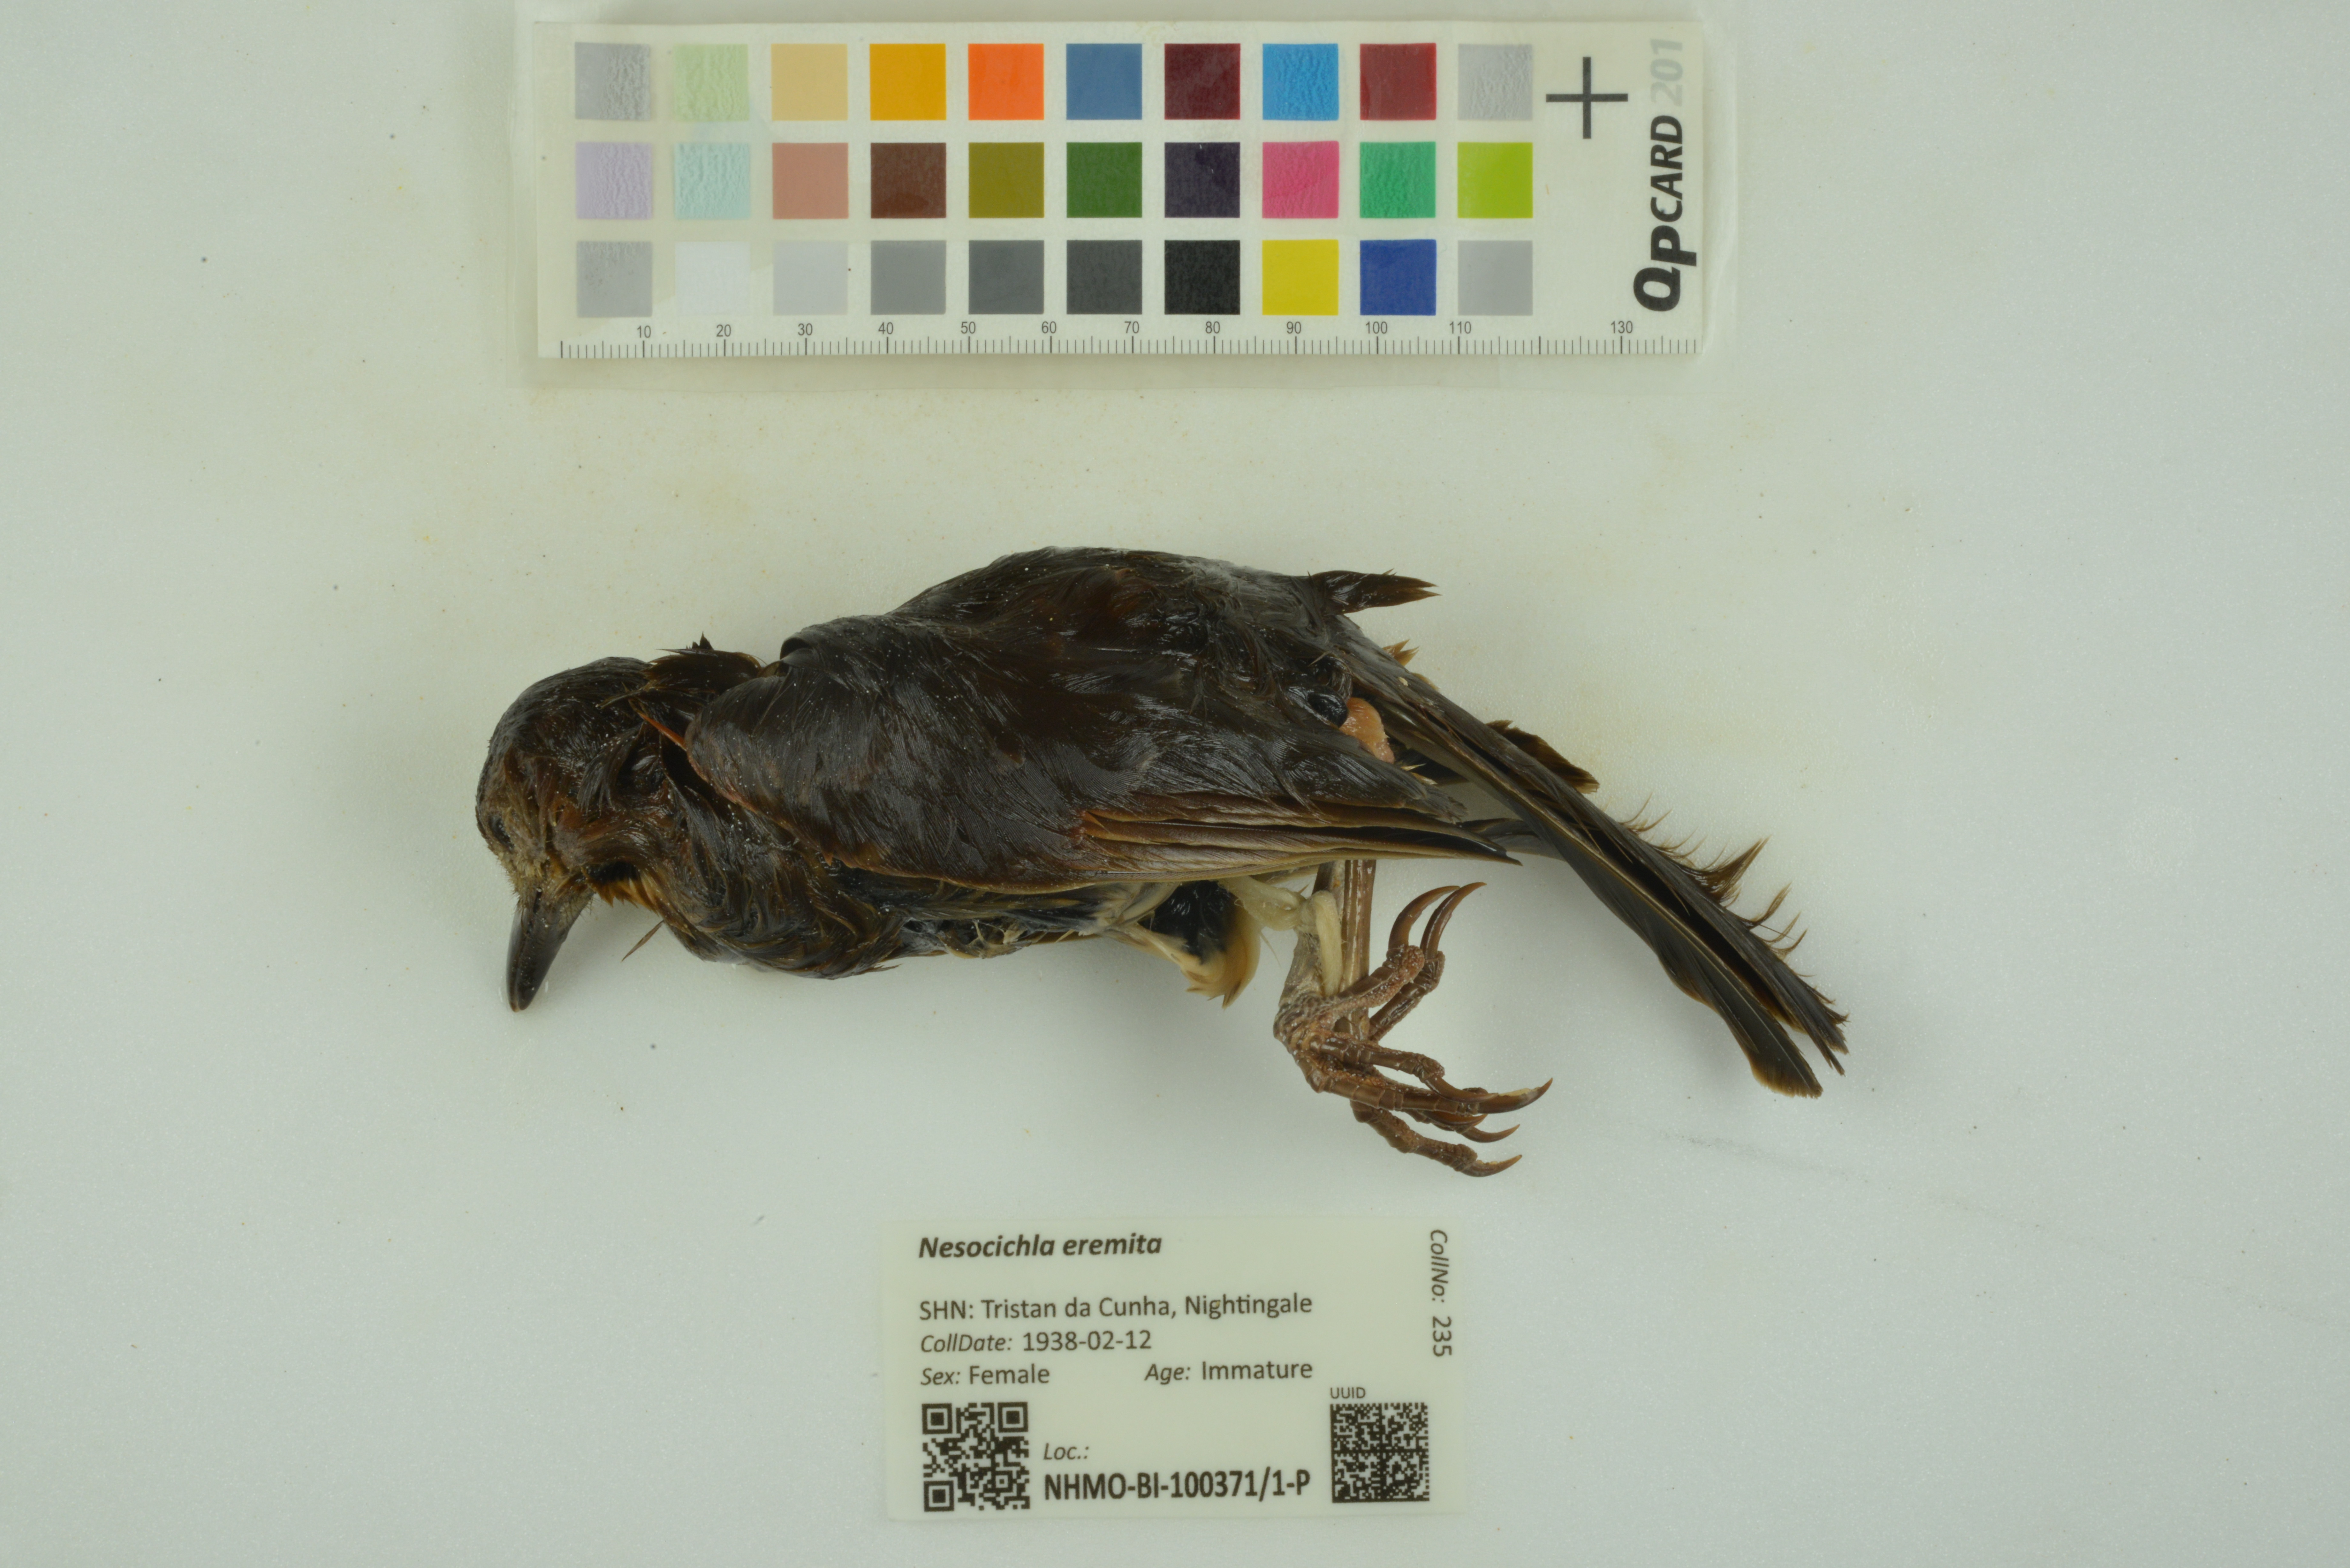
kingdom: Animalia
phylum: Chordata
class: Aves
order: Passeriformes
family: Turdidae
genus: Nesocichla
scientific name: Nesocichla eremita
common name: Tristan thrush
